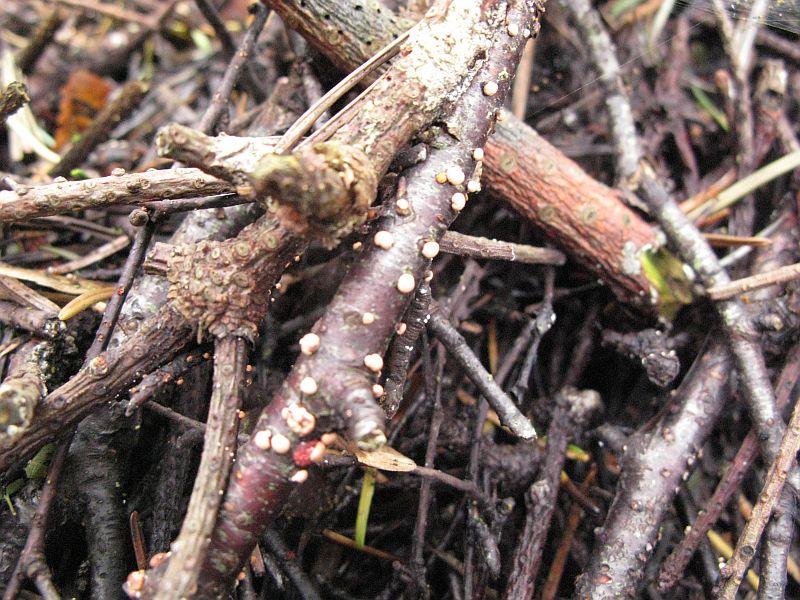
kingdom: Fungi
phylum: Ascomycota
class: Sordariomycetes
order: Hypocreales
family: Nectriaceae
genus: Nectria
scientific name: Nectria cinnabarina
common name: almindelig cinnobersvamp
